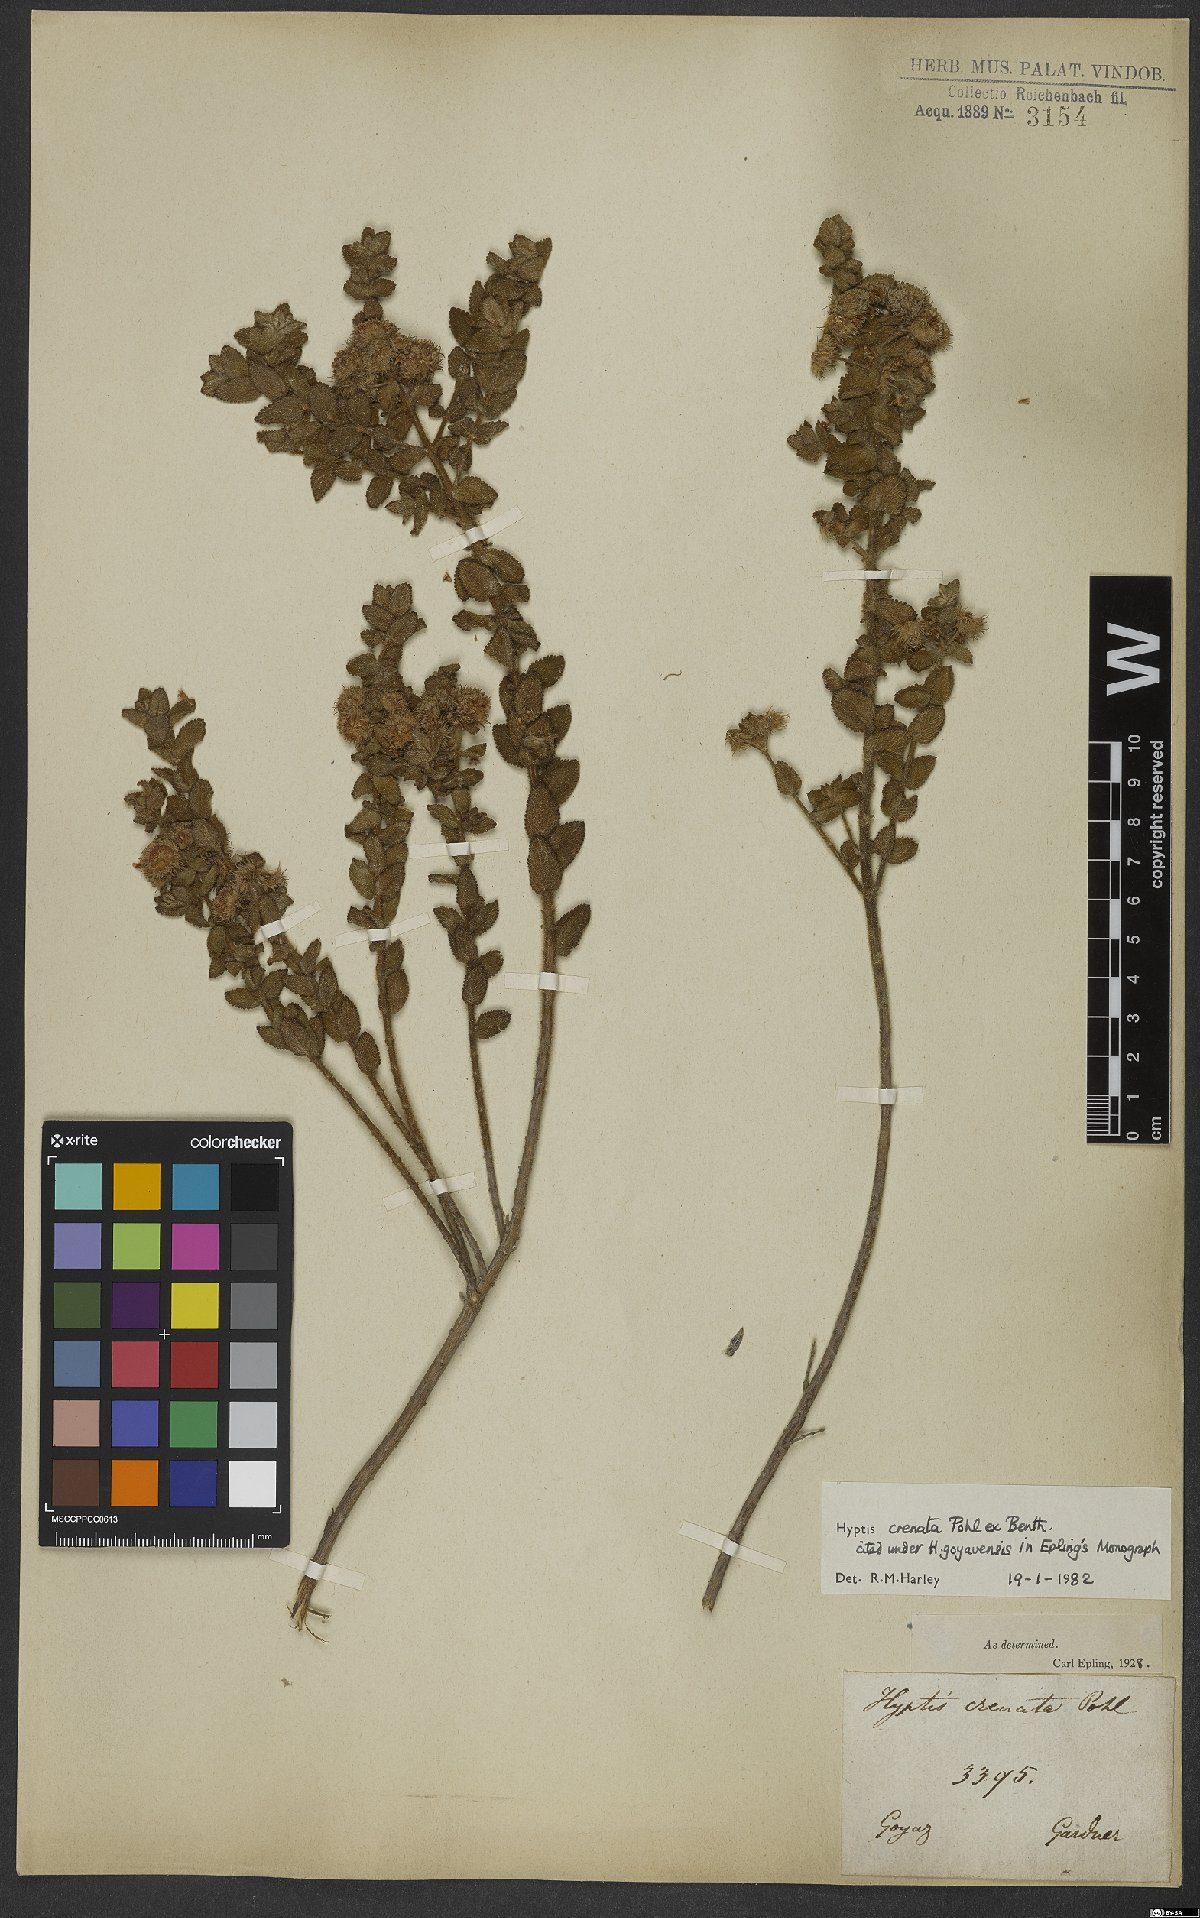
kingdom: Plantae
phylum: Tracheophyta
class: Magnoliopsida
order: Lamiales
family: Lamiaceae
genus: Hyptis
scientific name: Hyptis crenata
